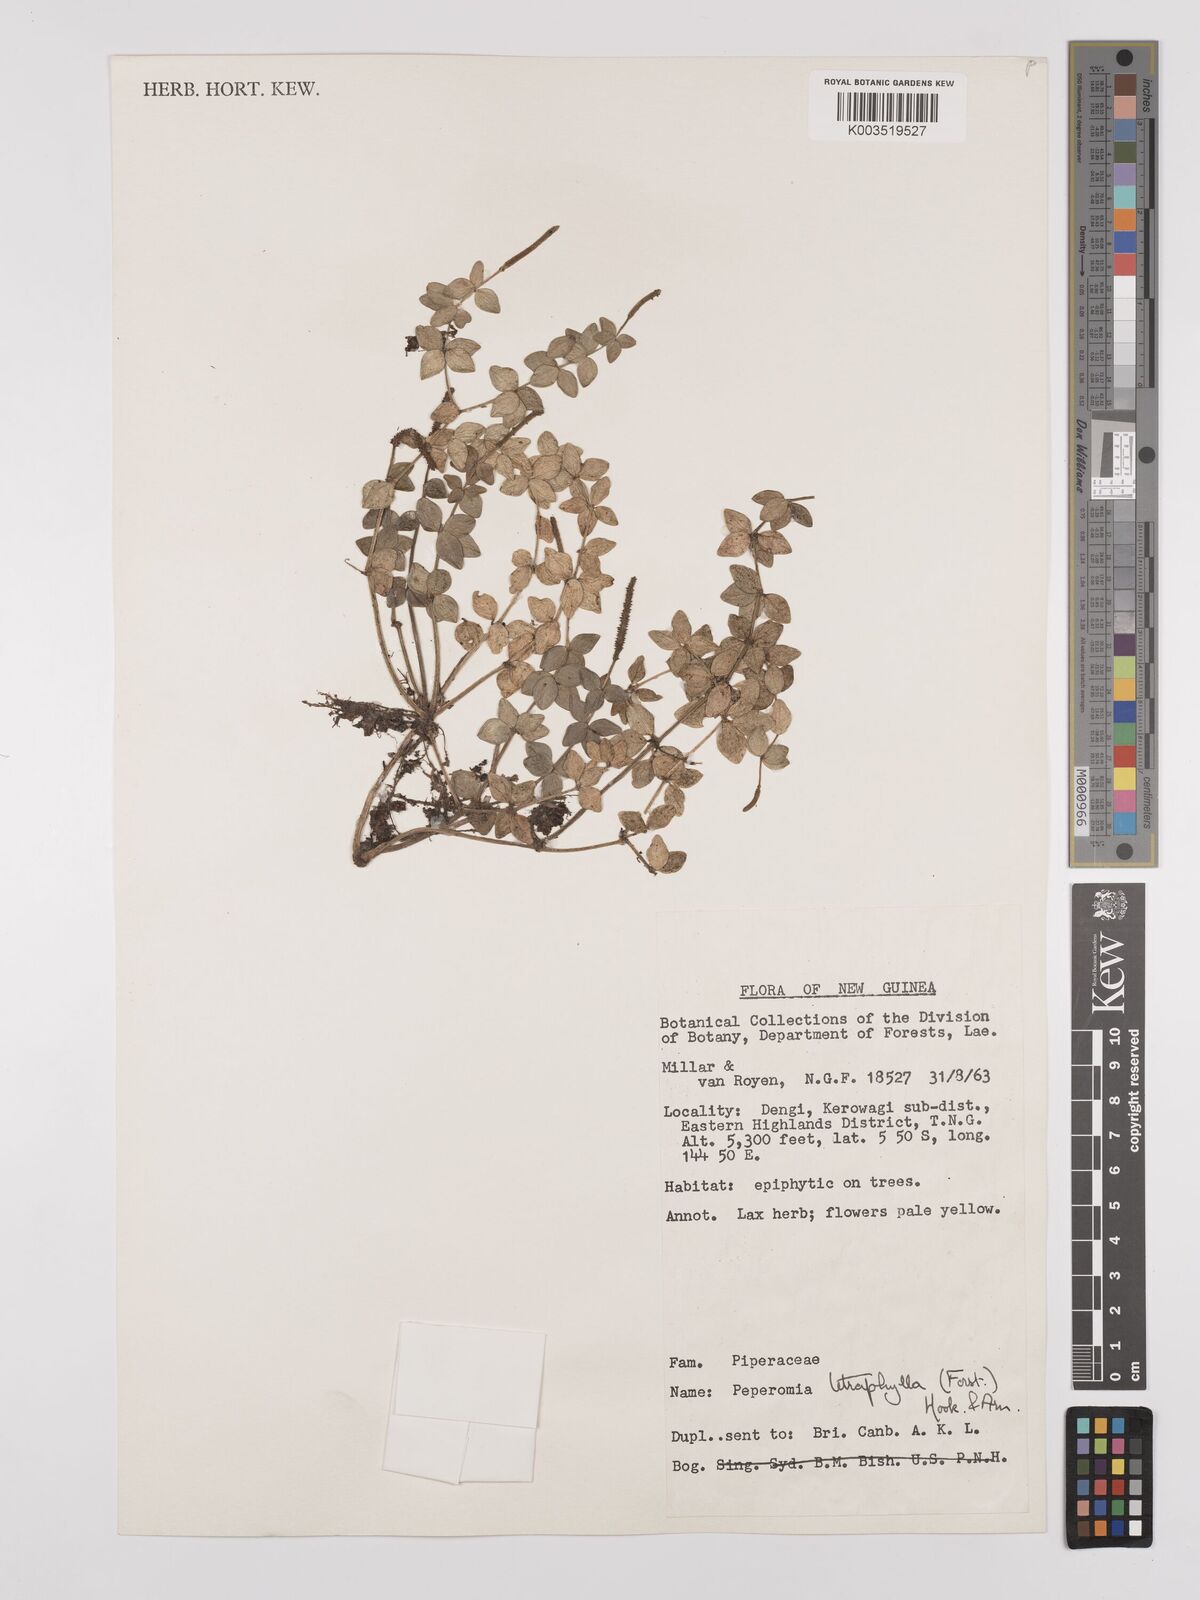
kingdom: Plantae
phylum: Tracheophyta
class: Magnoliopsida
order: Piperales
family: Piperaceae
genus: Peperomia
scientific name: Peperomia tetraphylla
